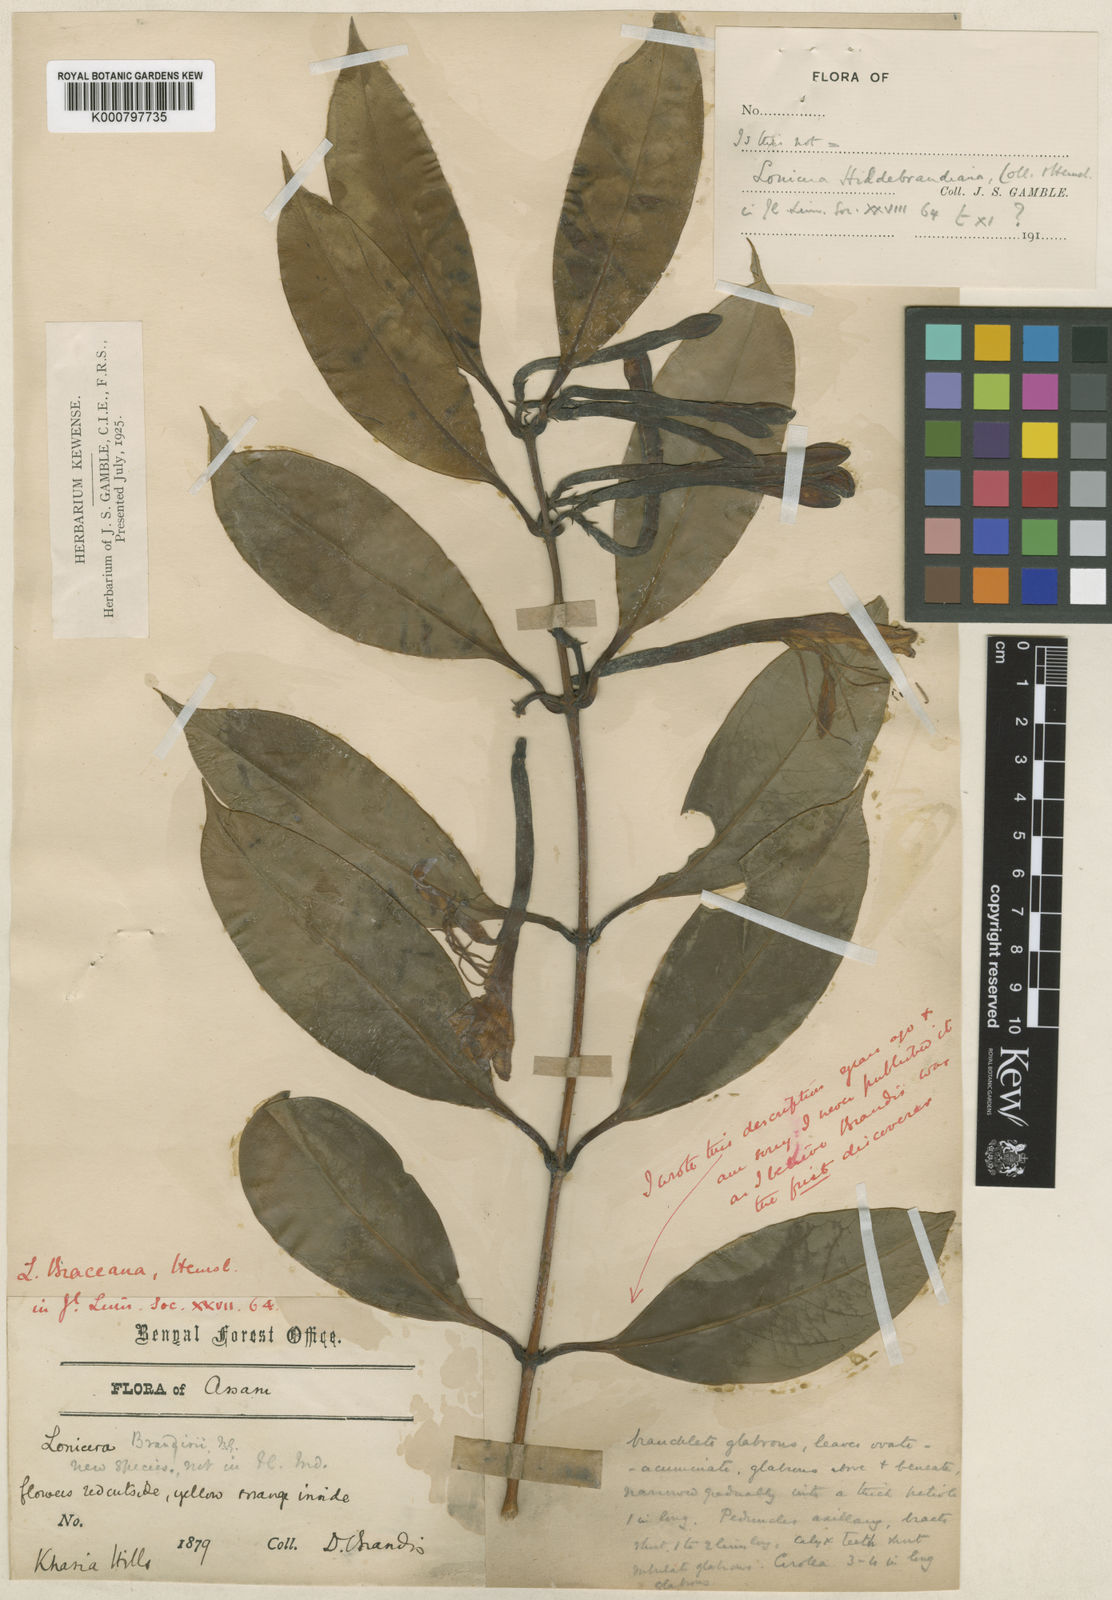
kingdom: Plantae
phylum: Tracheophyta
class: Magnoliopsida
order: Dipsacales
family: Caprifoliaceae
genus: Lonicera
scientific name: Lonicera hildebrandiana
